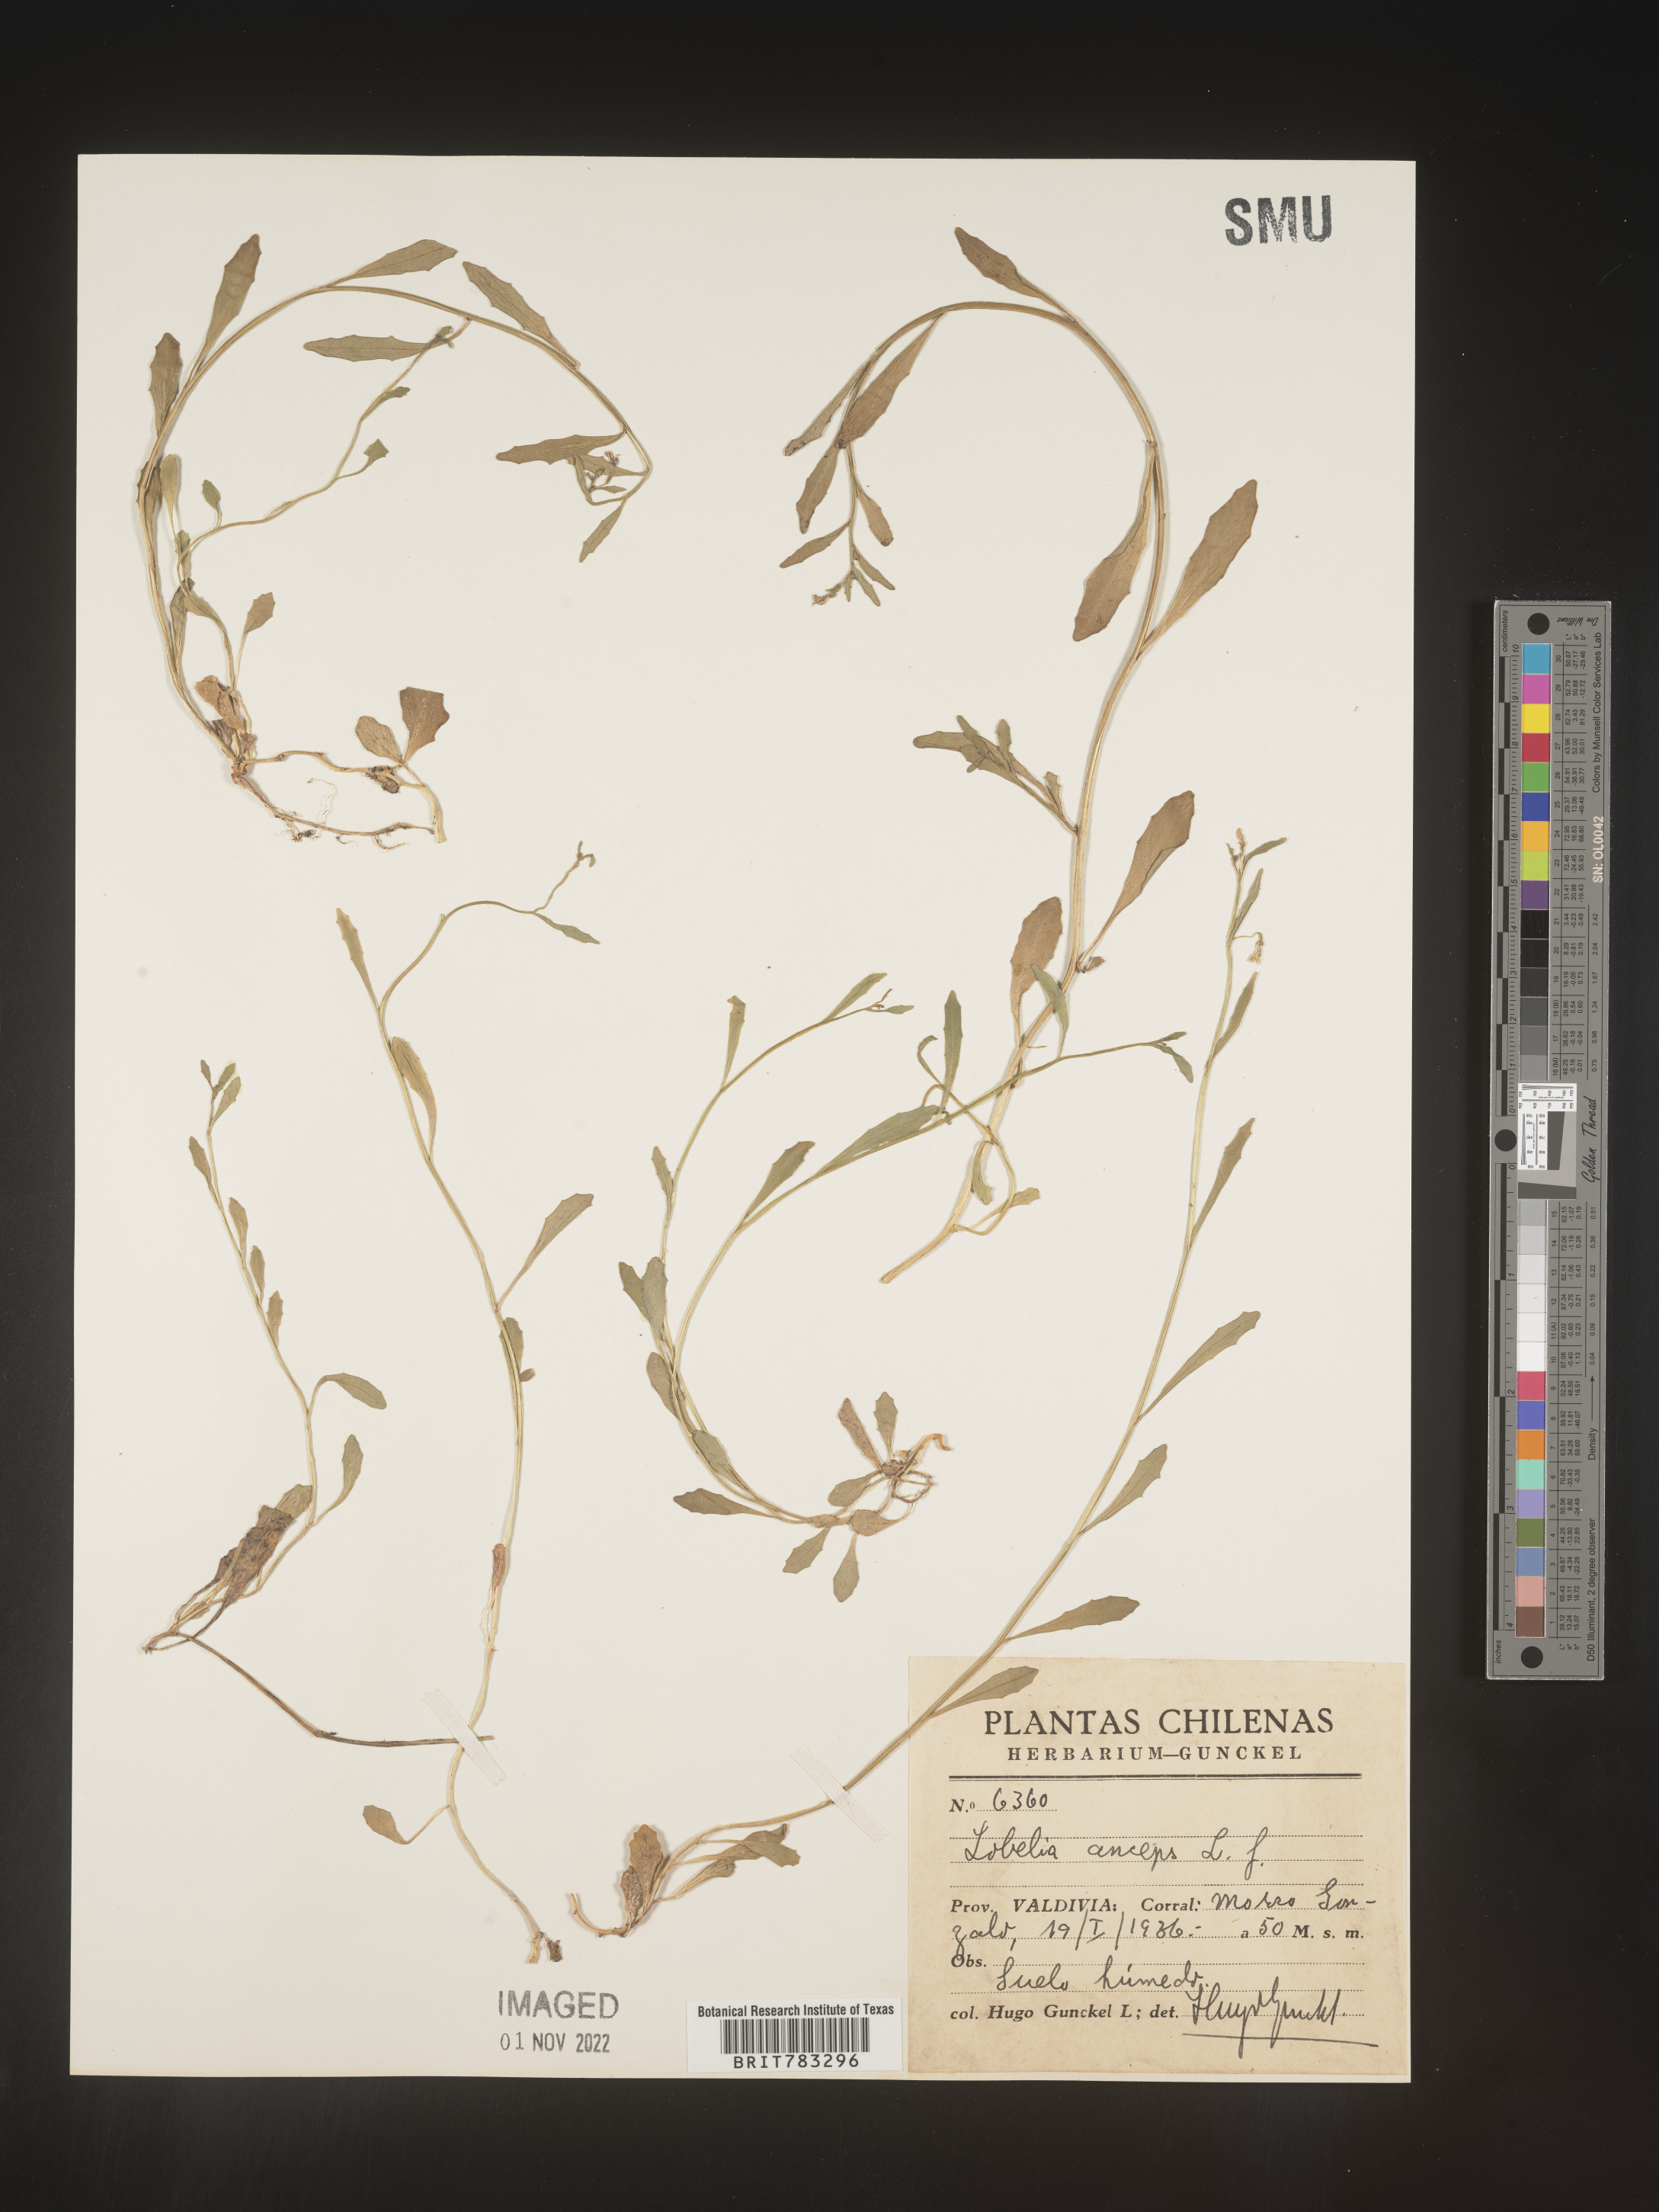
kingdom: Plantae
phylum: Tracheophyta
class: Magnoliopsida
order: Asterales
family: Campanulaceae
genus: Lobelia
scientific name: Lobelia
